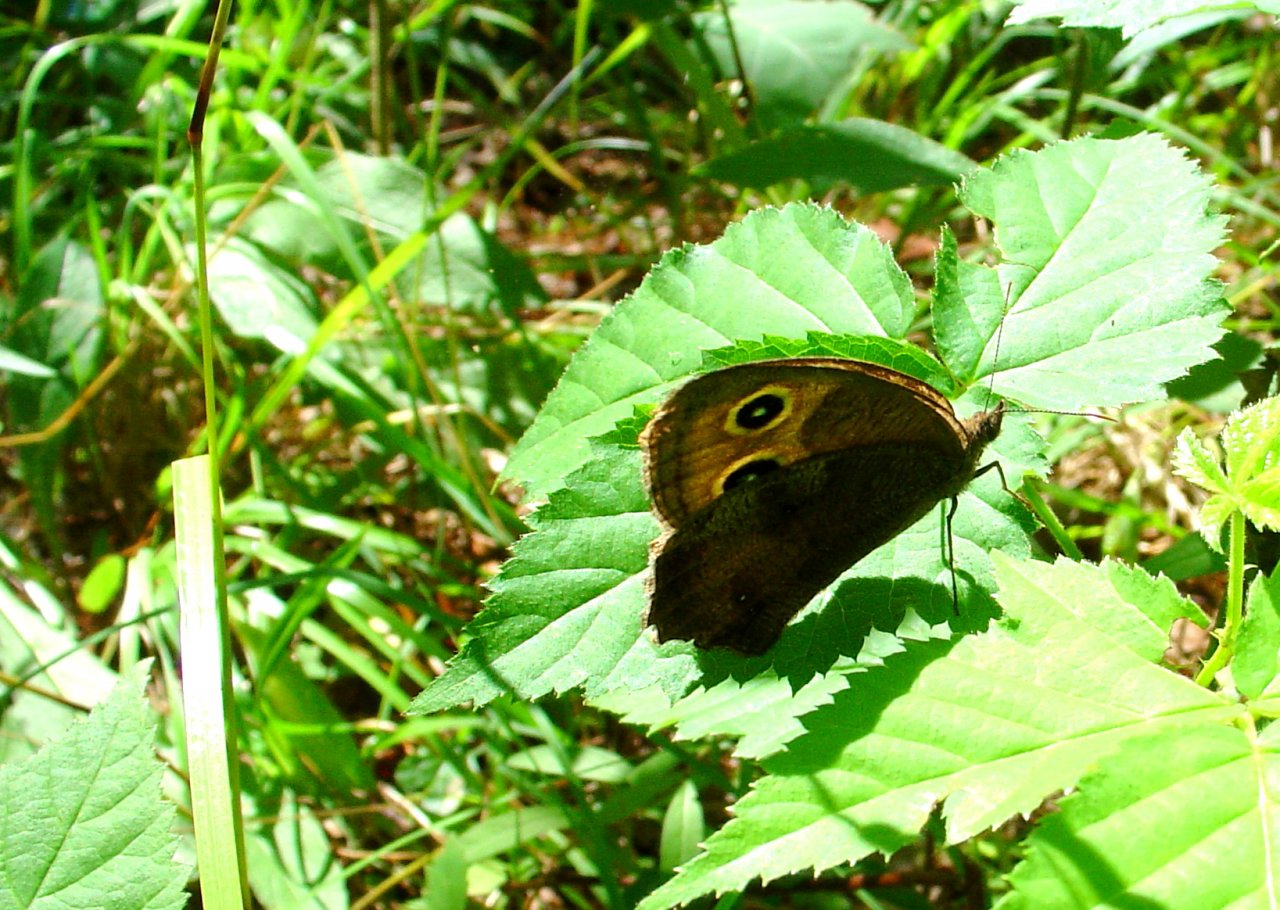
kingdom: Animalia
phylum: Arthropoda
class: Insecta
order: Lepidoptera
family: Nymphalidae
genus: Cercyonis
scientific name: Cercyonis pegala
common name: Common Wood-Nymph
